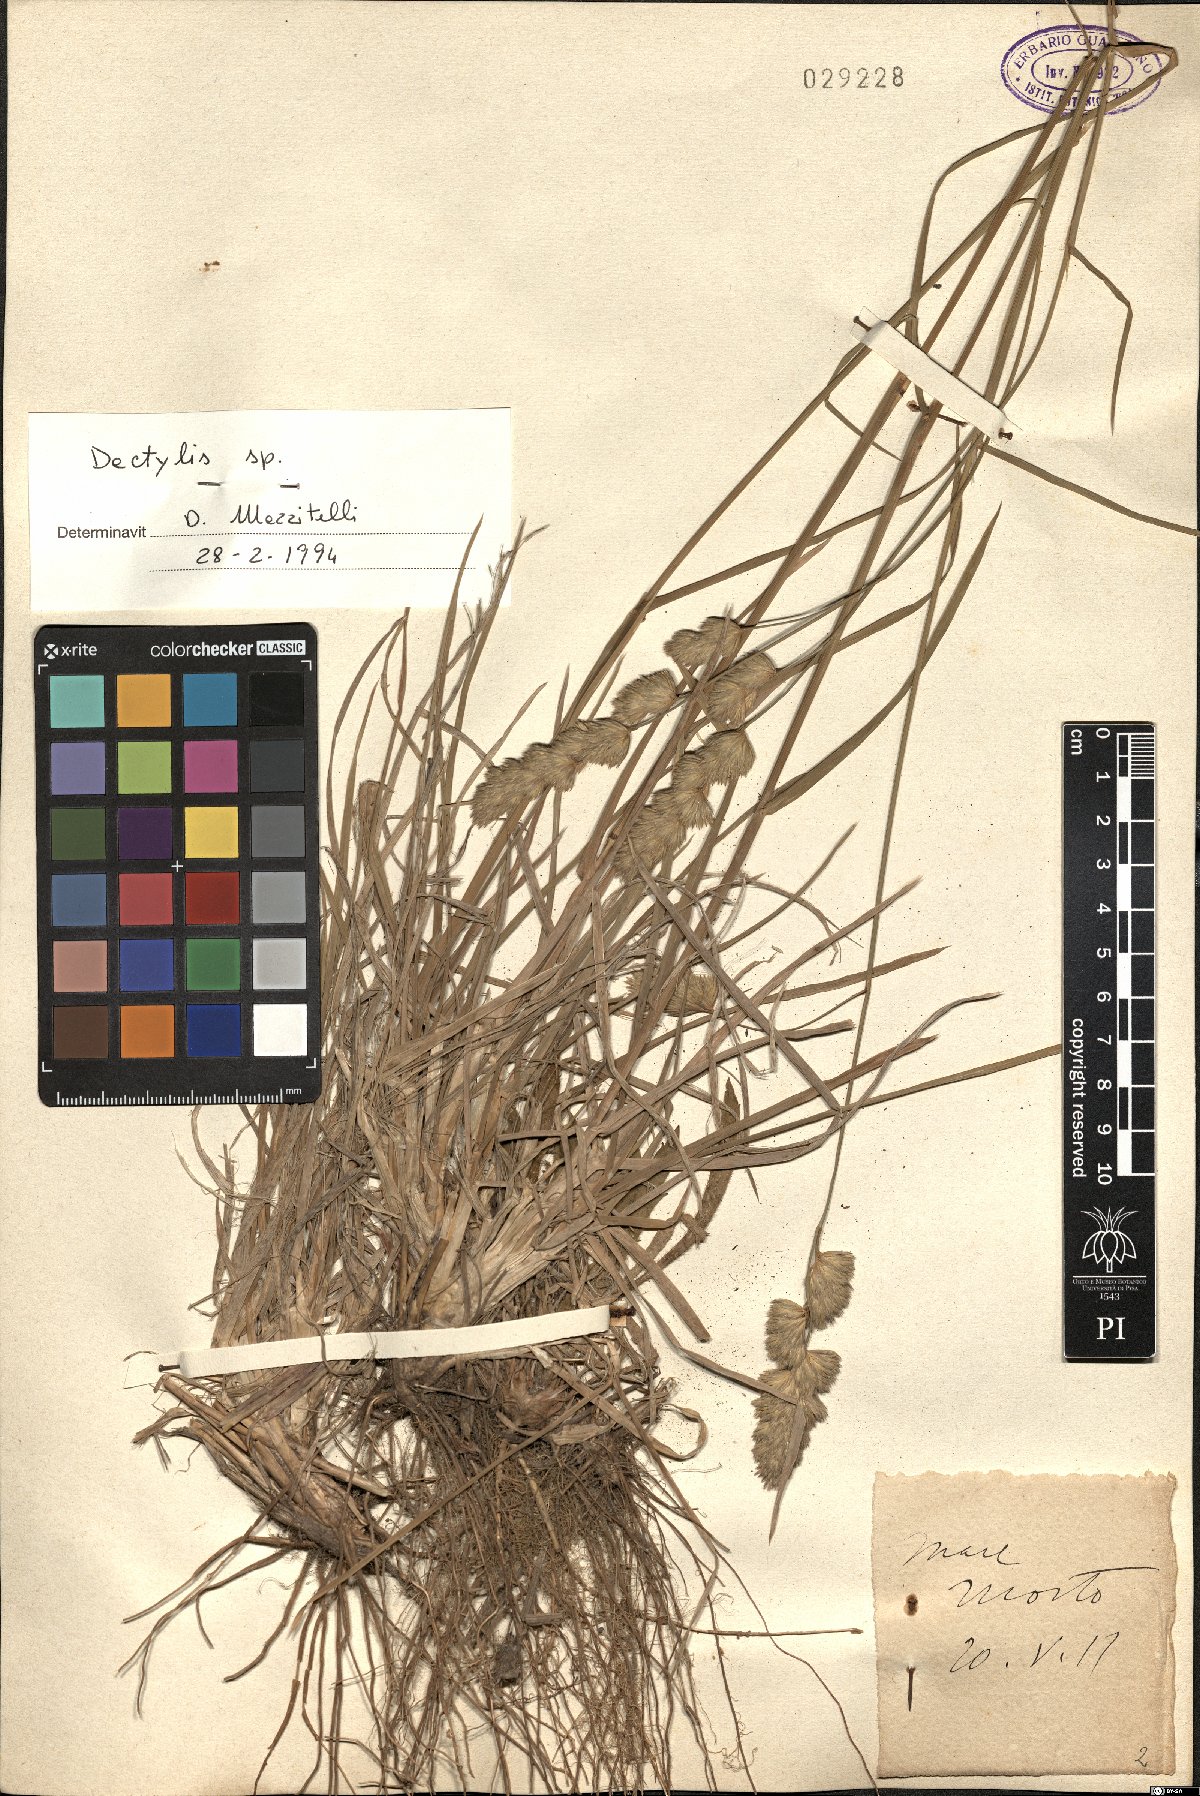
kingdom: Plantae
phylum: Tracheophyta
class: Liliopsida
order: Poales
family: Poaceae
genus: Dactylis
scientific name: Dactylis
